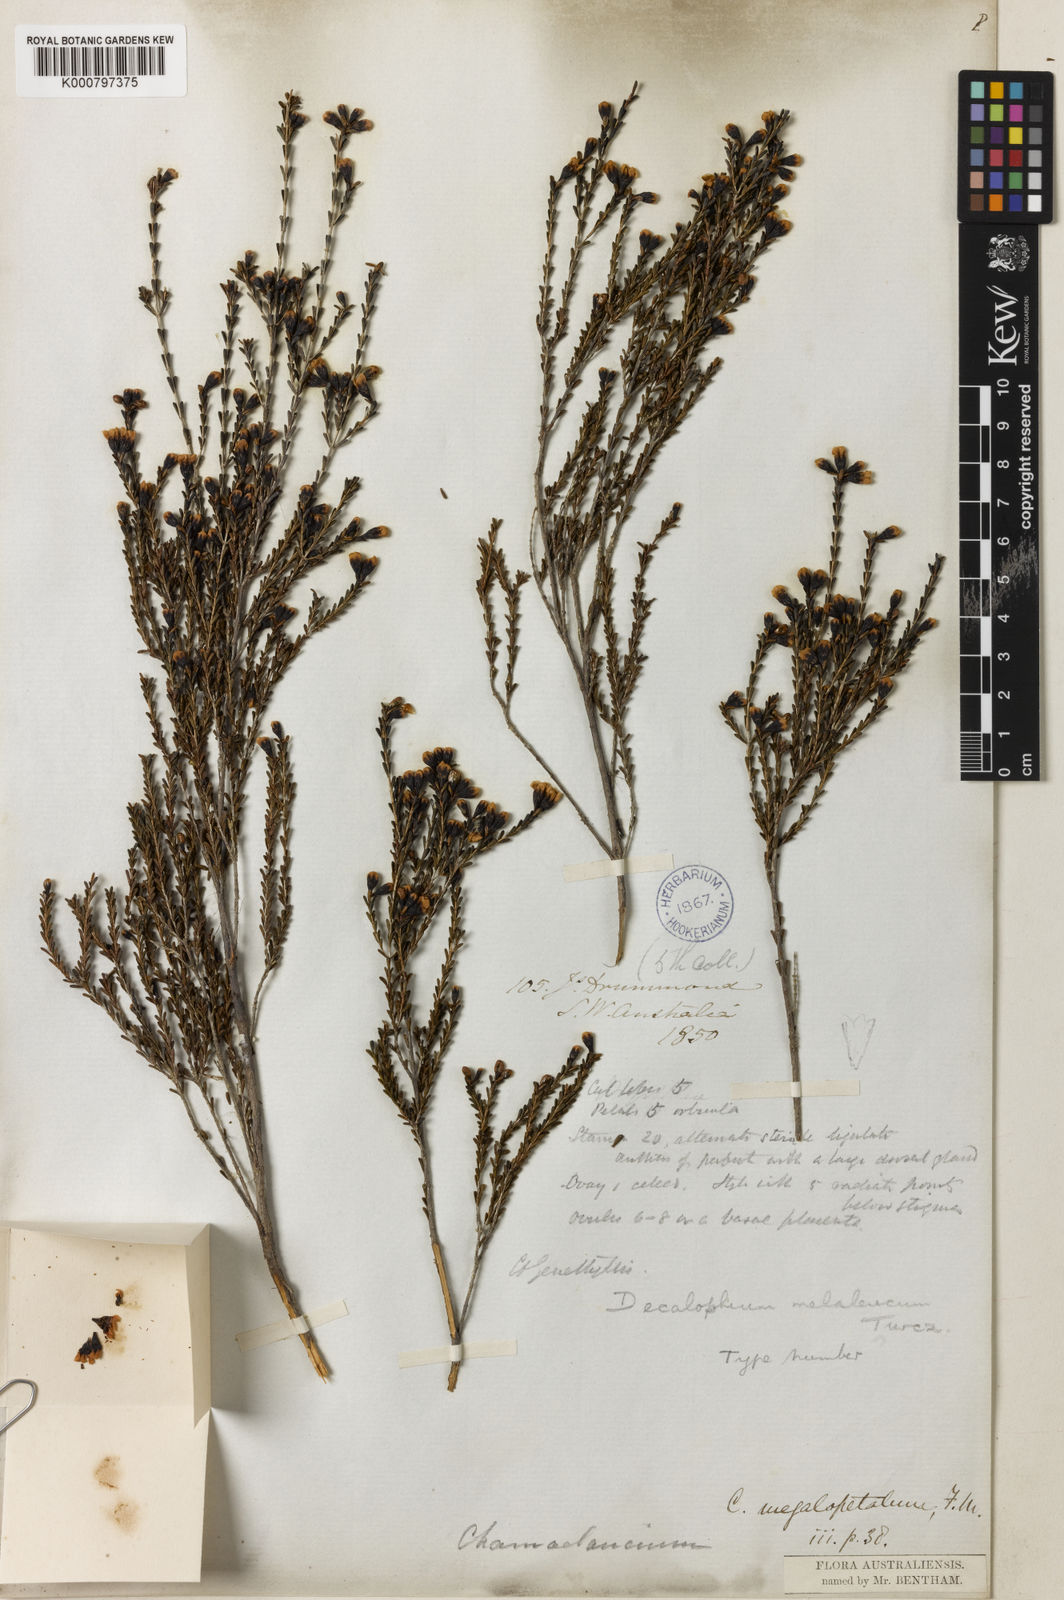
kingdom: Plantae
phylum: Tracheophyta
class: Magnoliopsida
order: Myrtales
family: Myrtaceae
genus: Chamelaucium
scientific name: Chamelaucium
